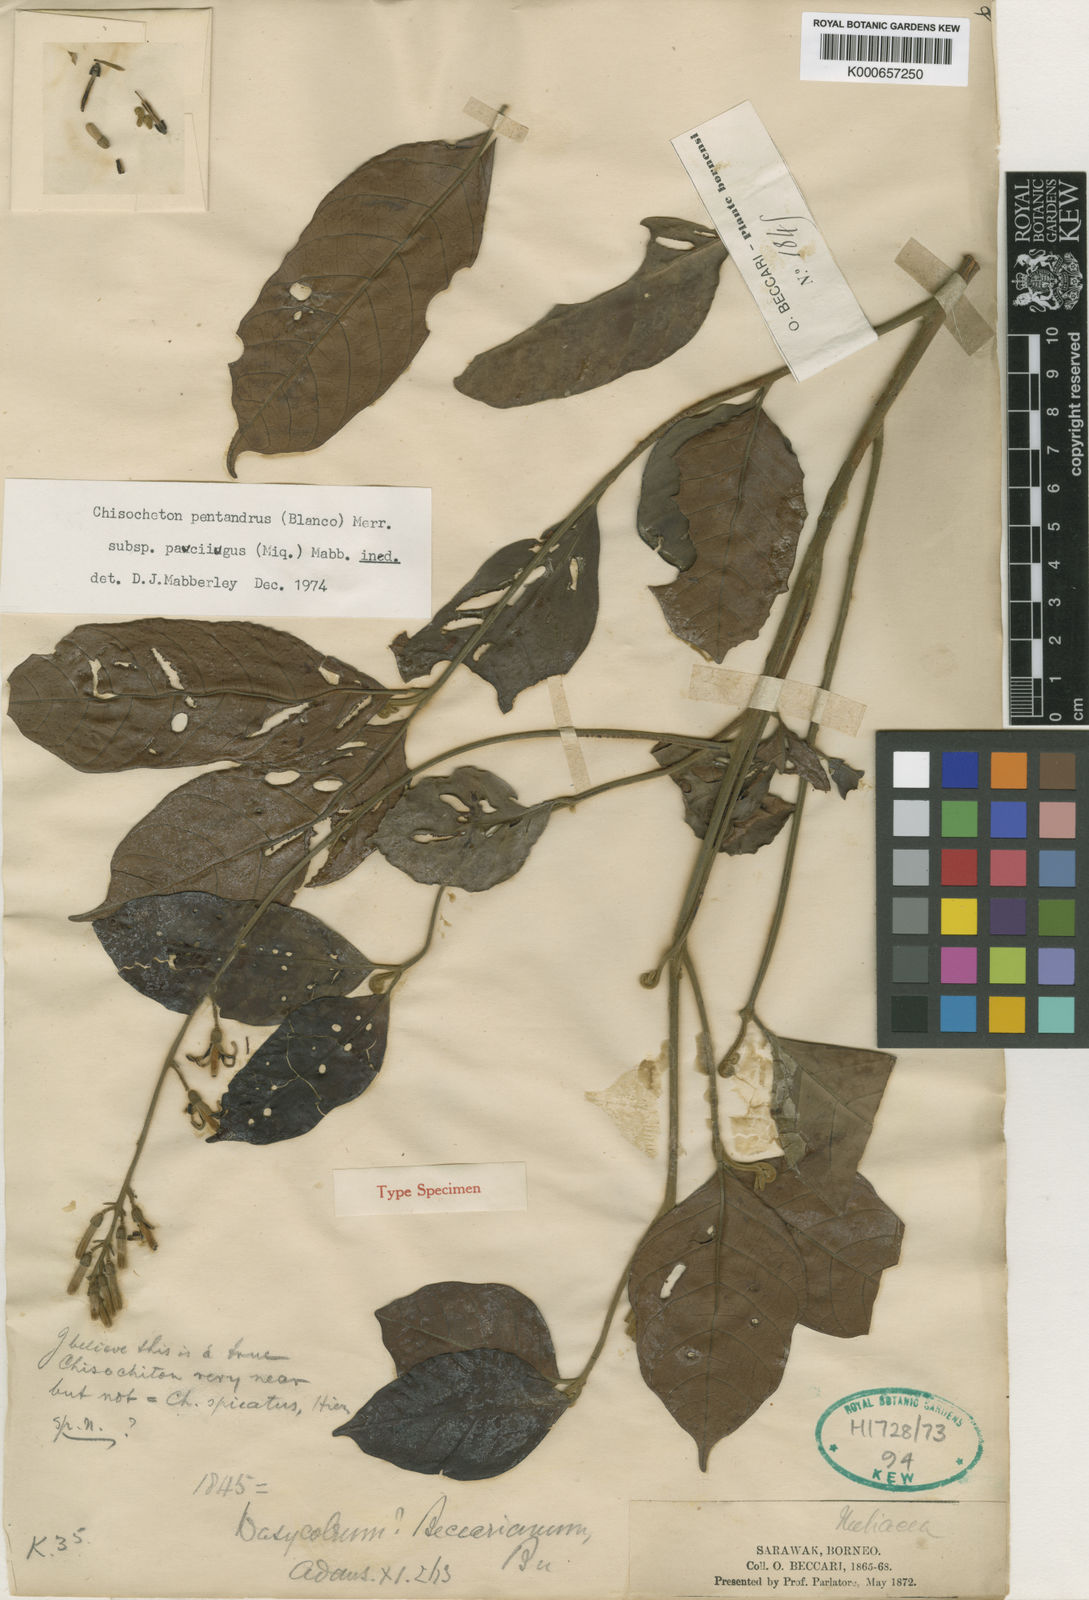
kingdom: Plantae
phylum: Tracheophyta
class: Magnoliopsida
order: Sapindales
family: Meliaceae
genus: Chisocheton
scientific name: Chisocheton pentandrus
